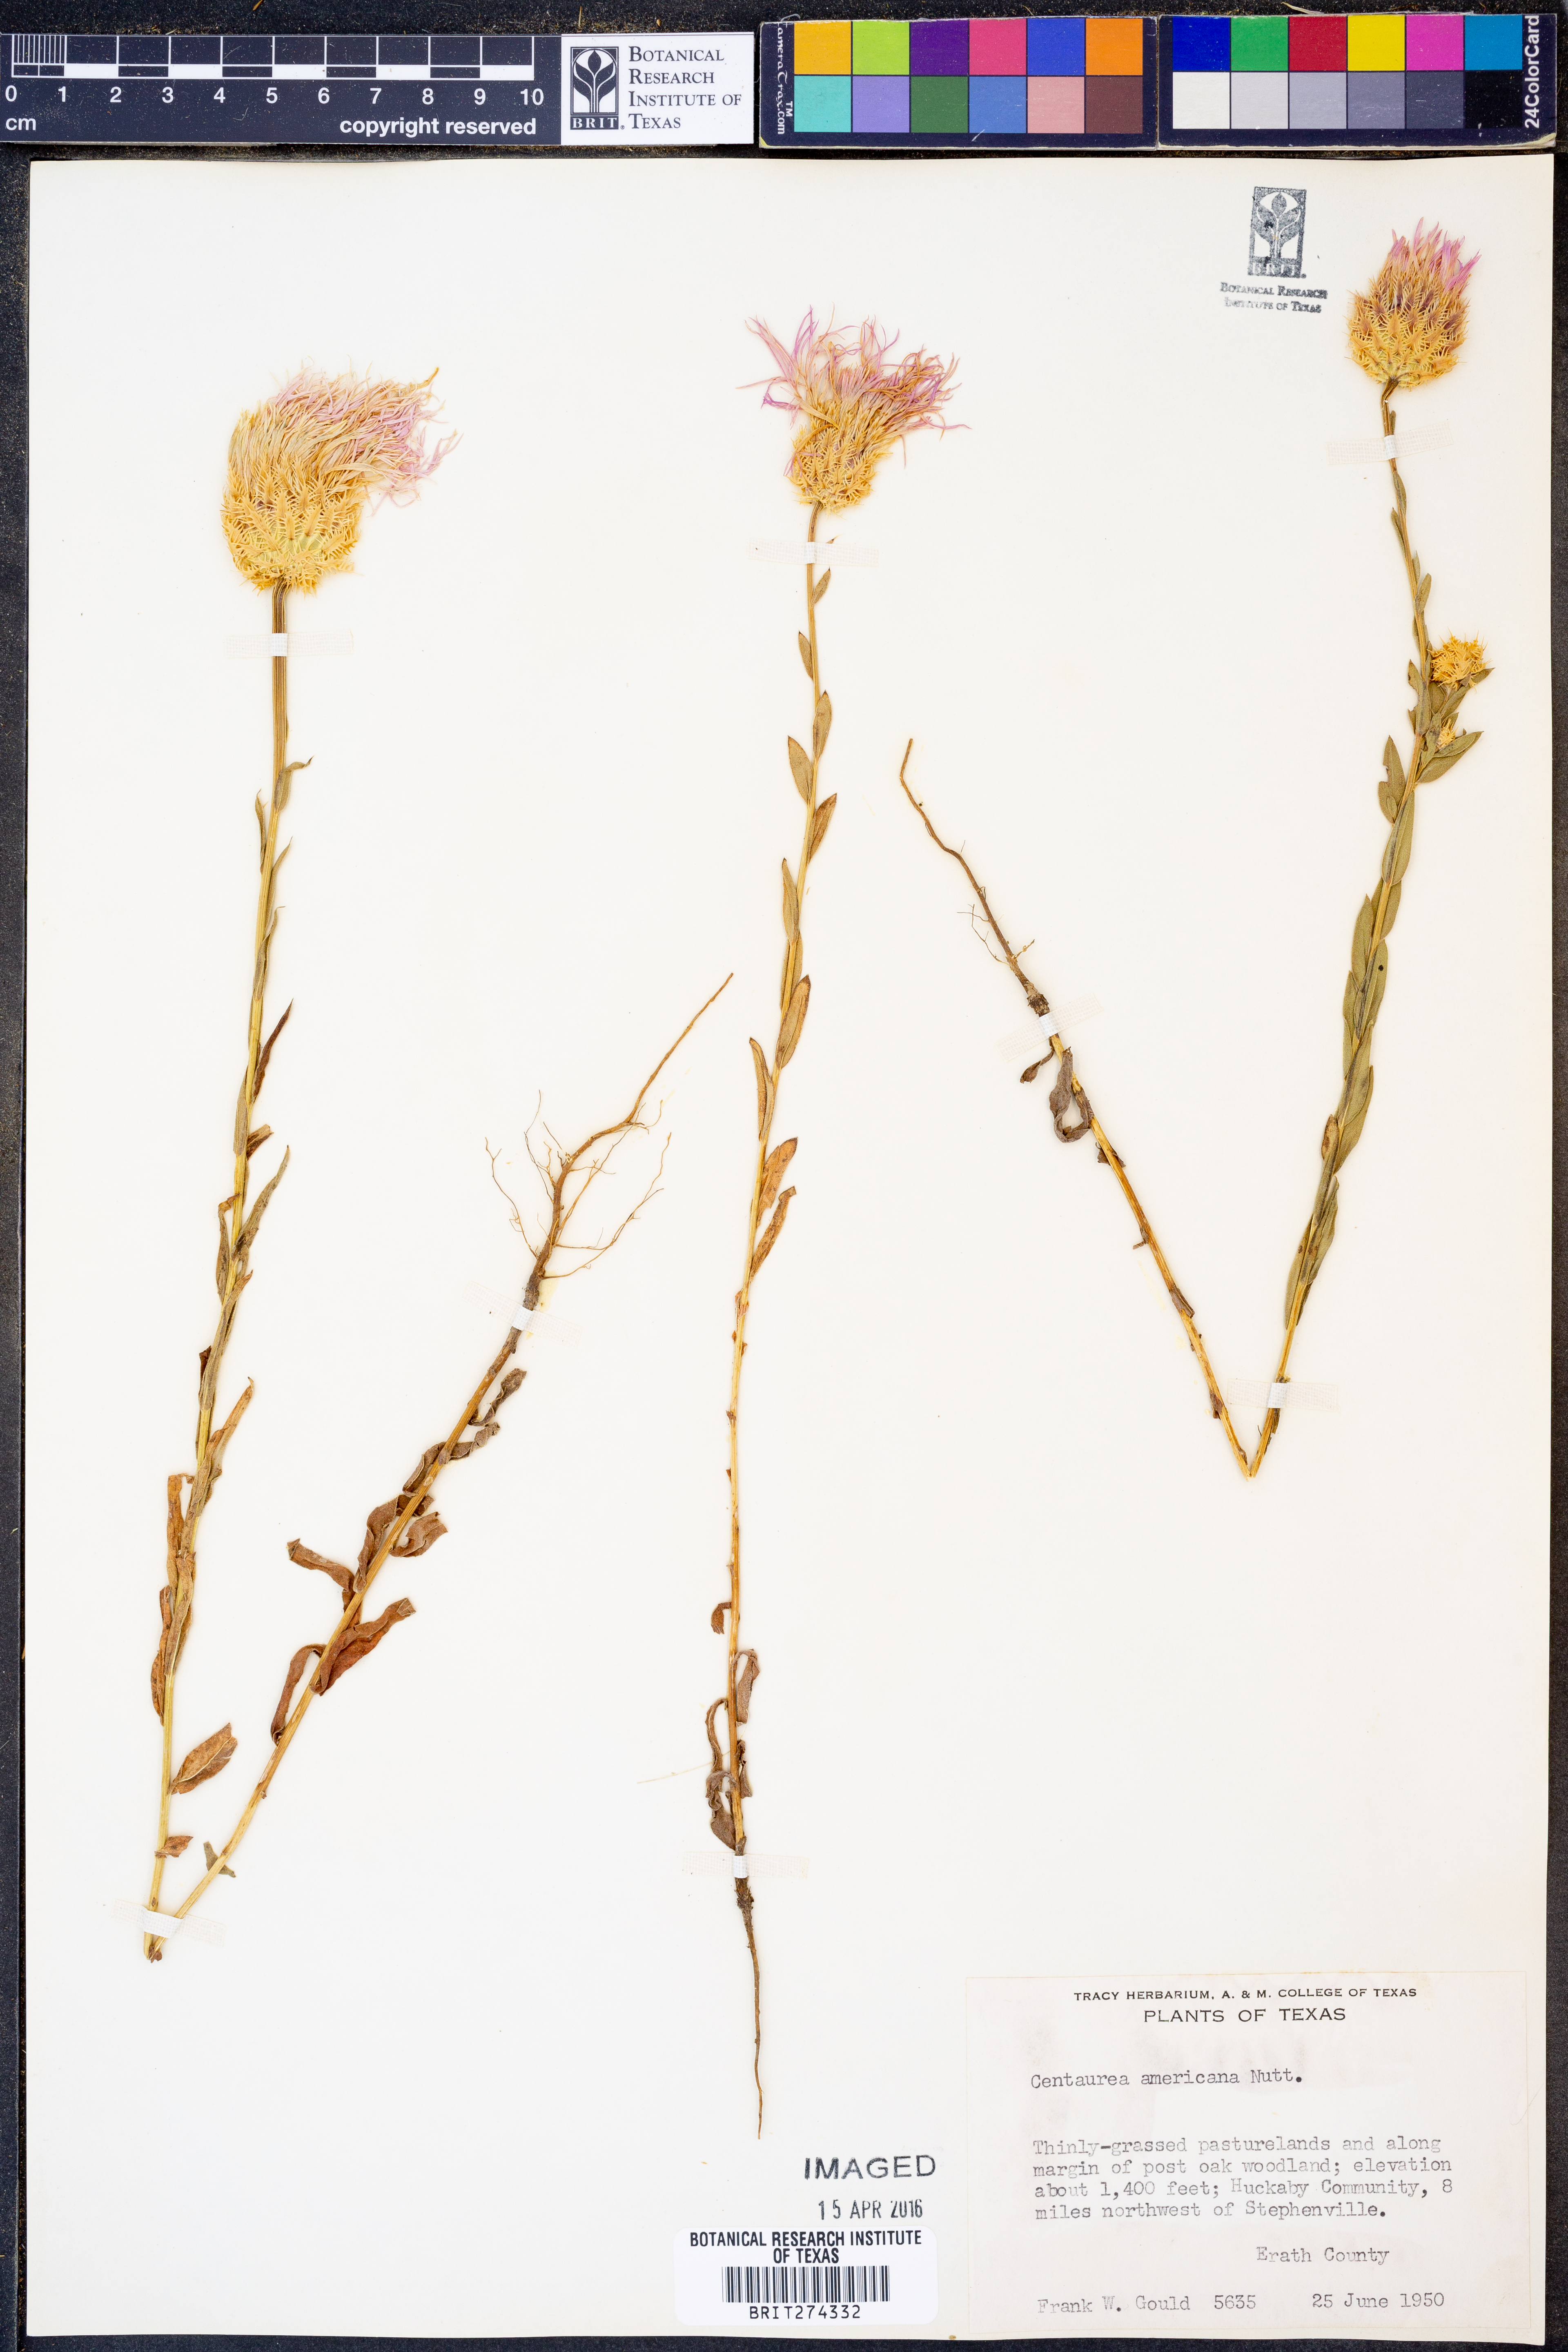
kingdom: Plantae
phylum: Tracheophyta
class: Magnoliopsida
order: Asterales
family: Asteraceae
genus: Plectocephalus
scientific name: Plectocephalus americanus
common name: American basket-flower
